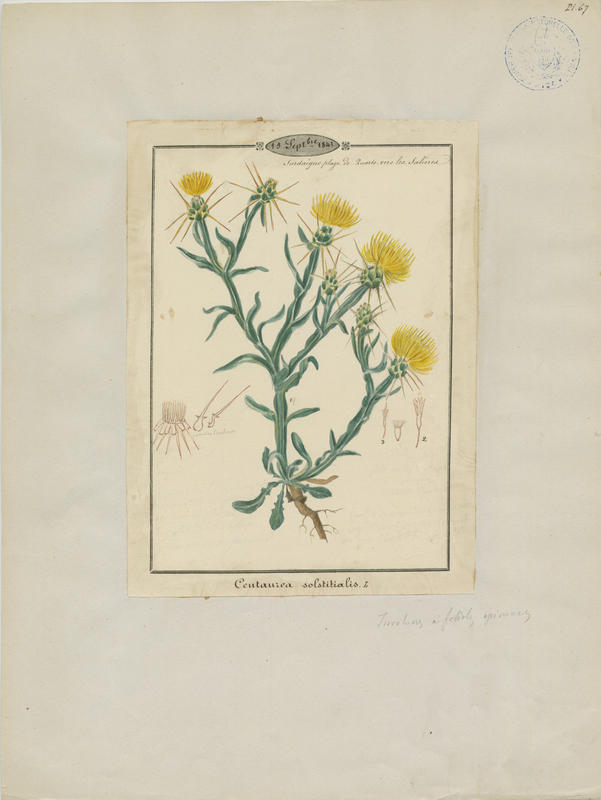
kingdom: Plantae
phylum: Tracheophyta
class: Magnoliopsida
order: Asterales
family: Asteraceae
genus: Centaurea
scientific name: Centaurea solstitialis
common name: Yellow star-thistle
